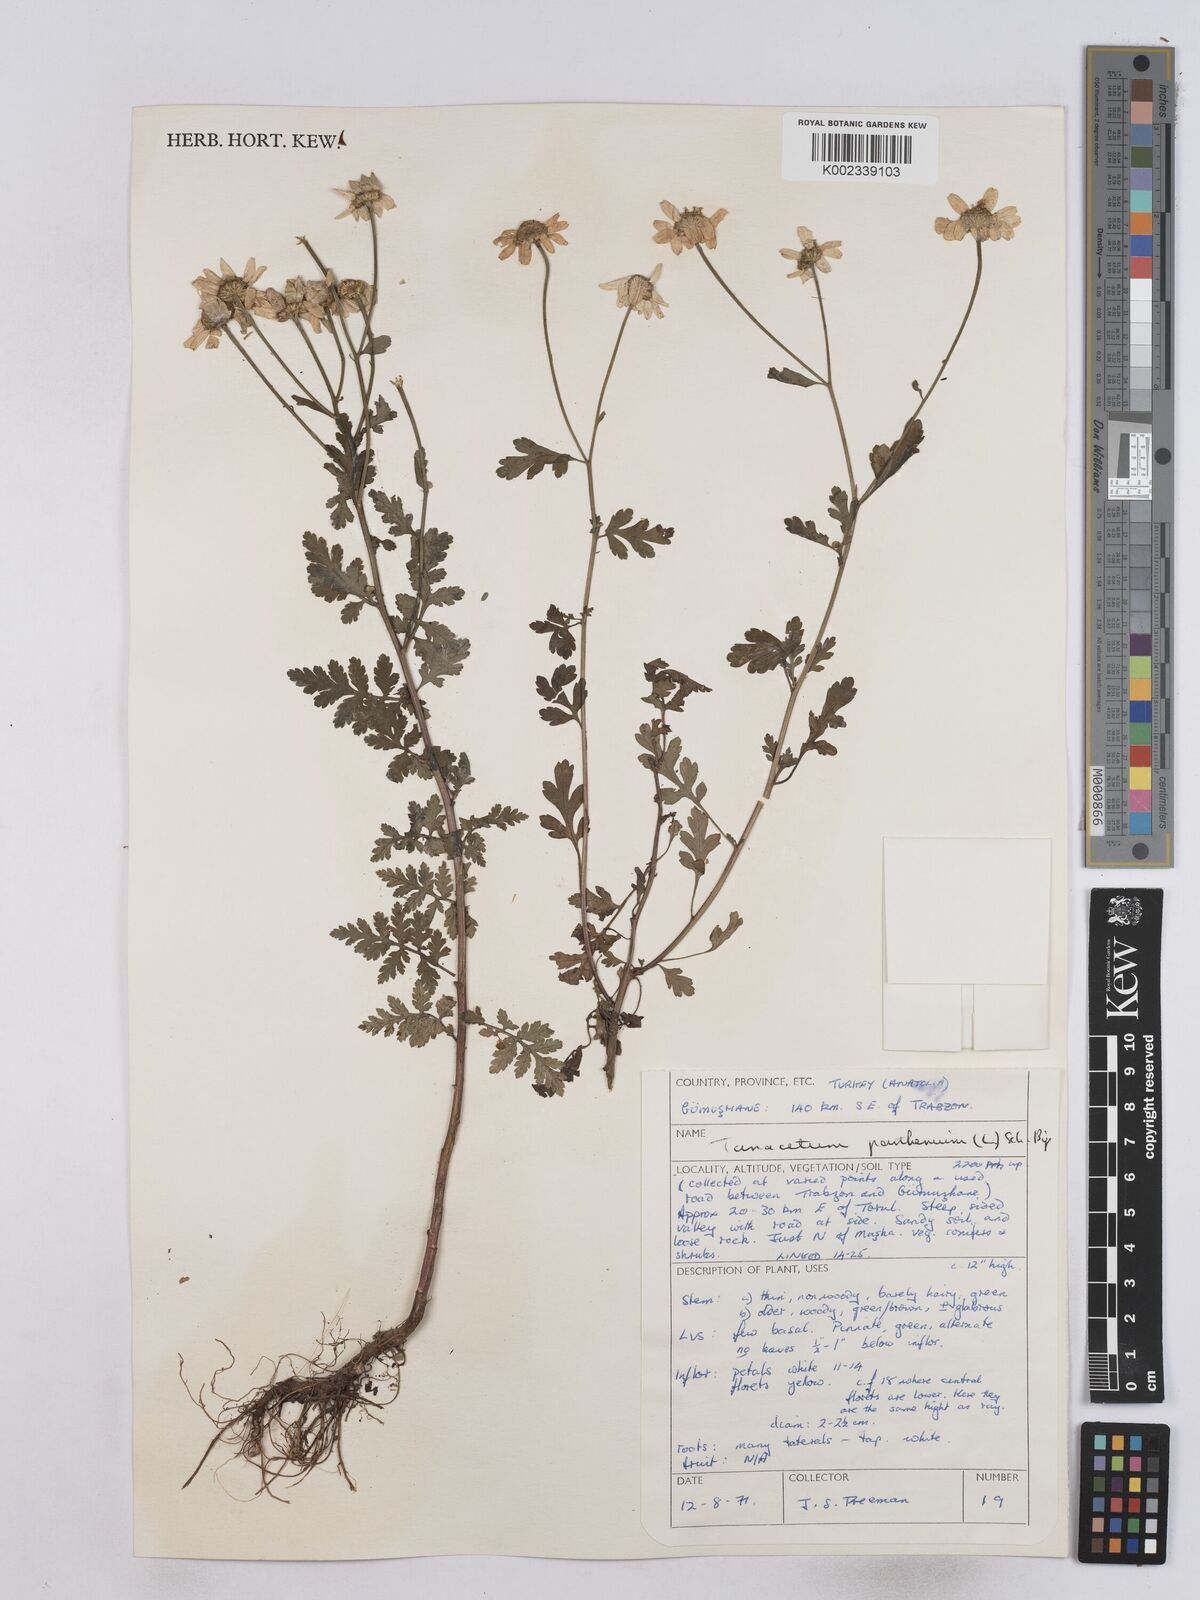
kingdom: Plantae
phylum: Tracheophyta
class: Magnoliopsida
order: Asterales
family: Asteraceae
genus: Tanacetum
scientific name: Tanacetum parthenium
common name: Feverfew
